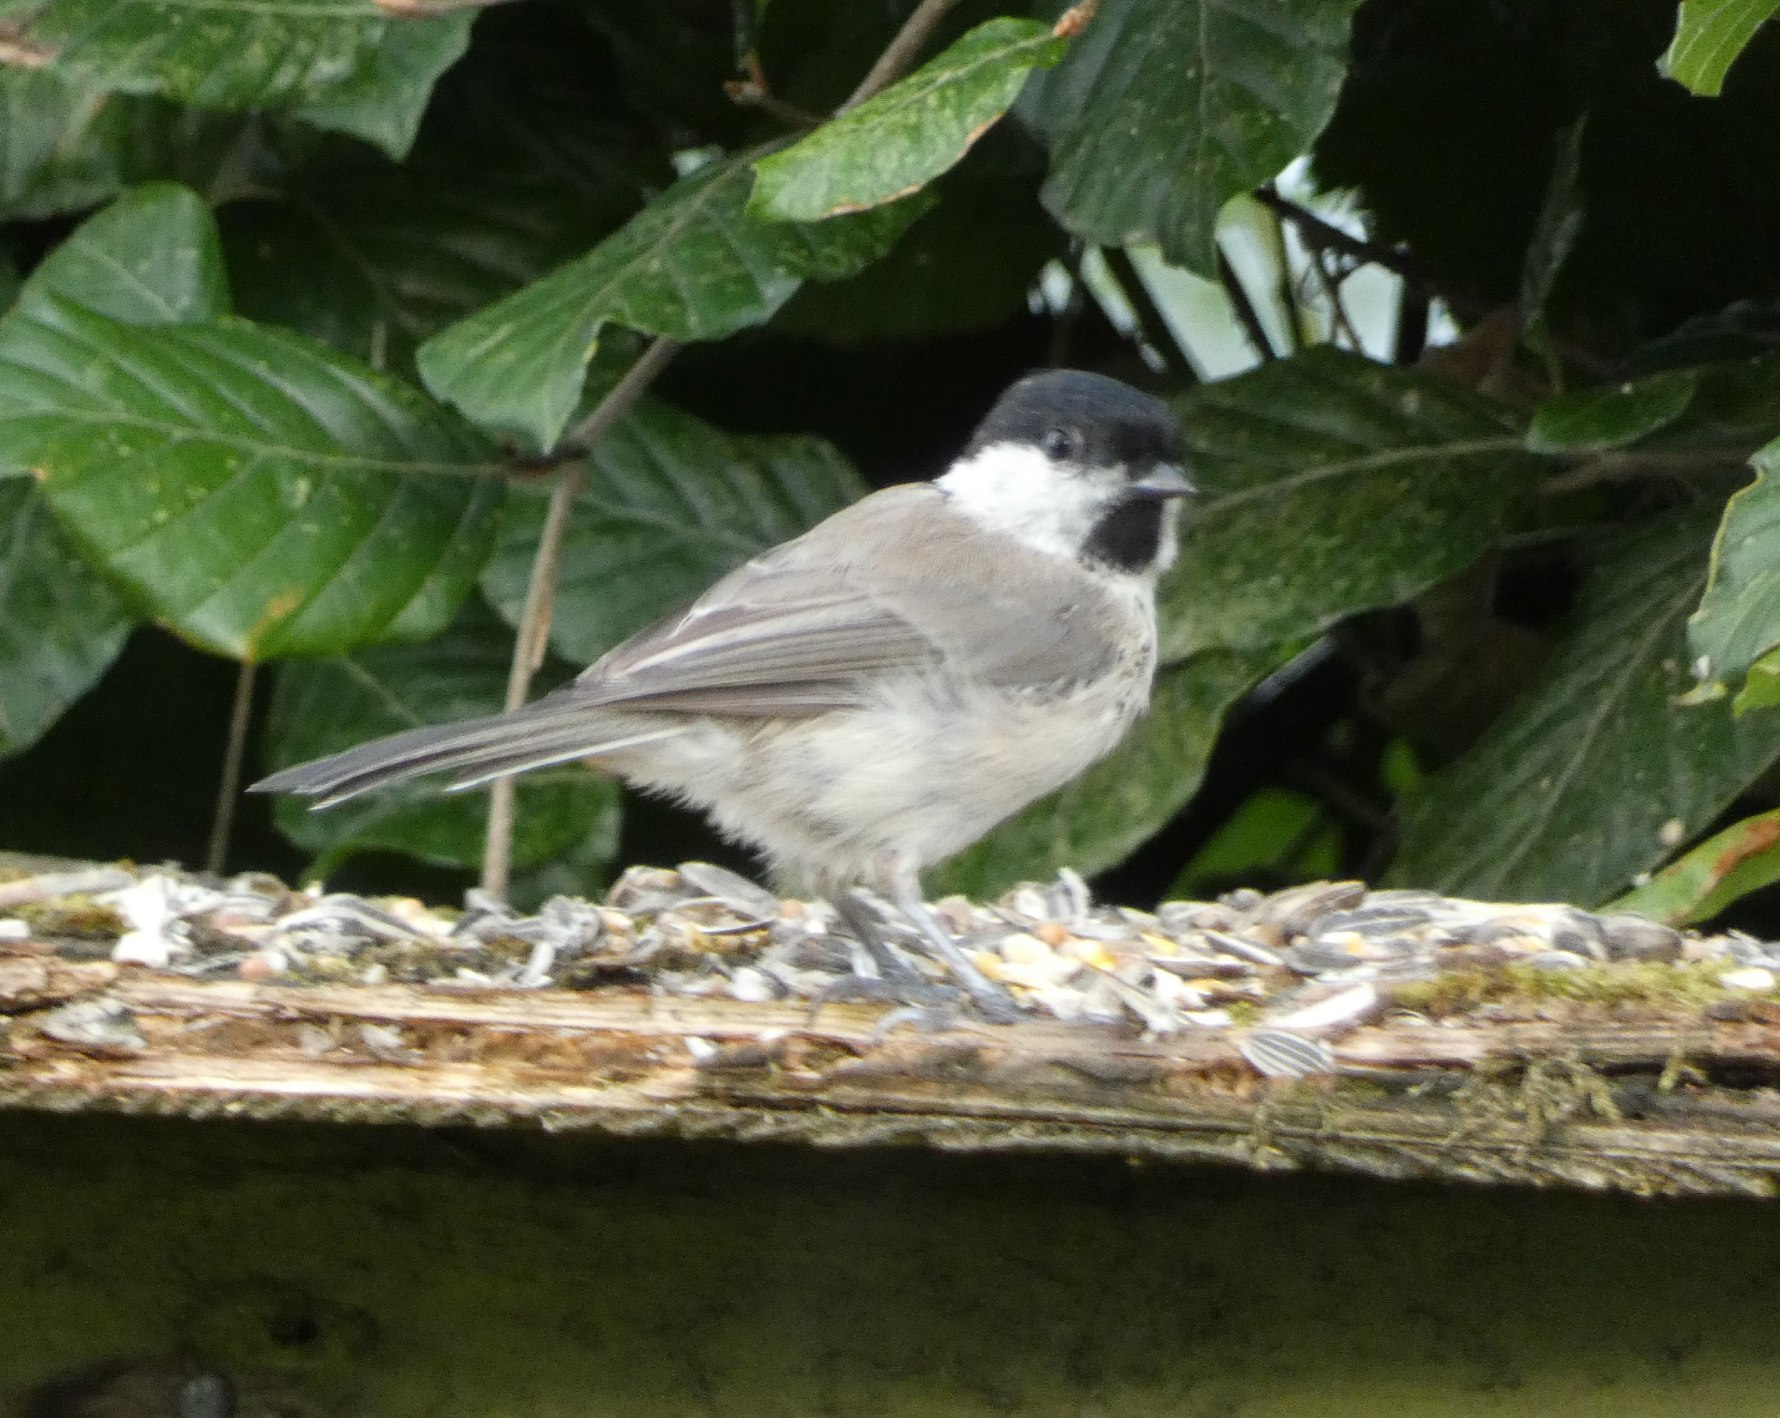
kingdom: Animalia
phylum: Chordata
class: Aves
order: Passeriformes
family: Paridae
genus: Poecile
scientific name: Poecile palustris
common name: Sumpmejse
